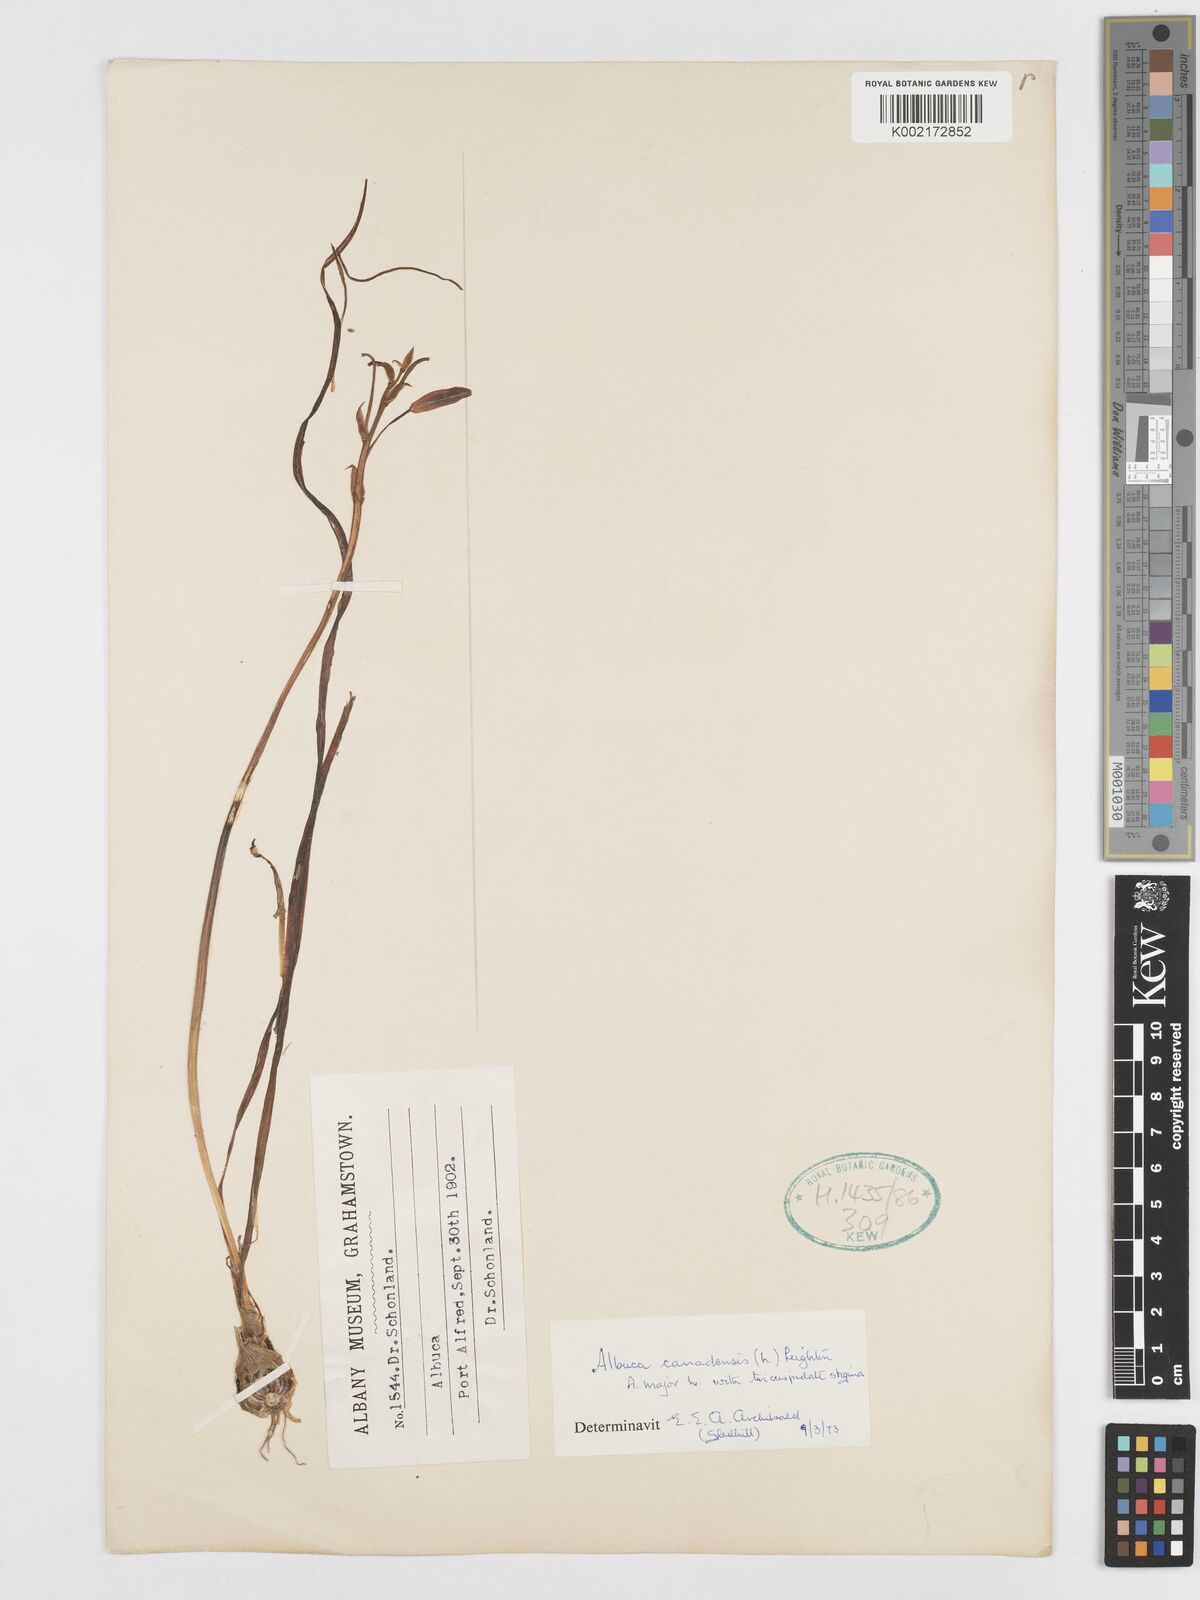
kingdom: Plantae
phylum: Tracheophyta
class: Liliopsida
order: Asparagales
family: Asparagaceae
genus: Albuca
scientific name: Albuca canadensis
